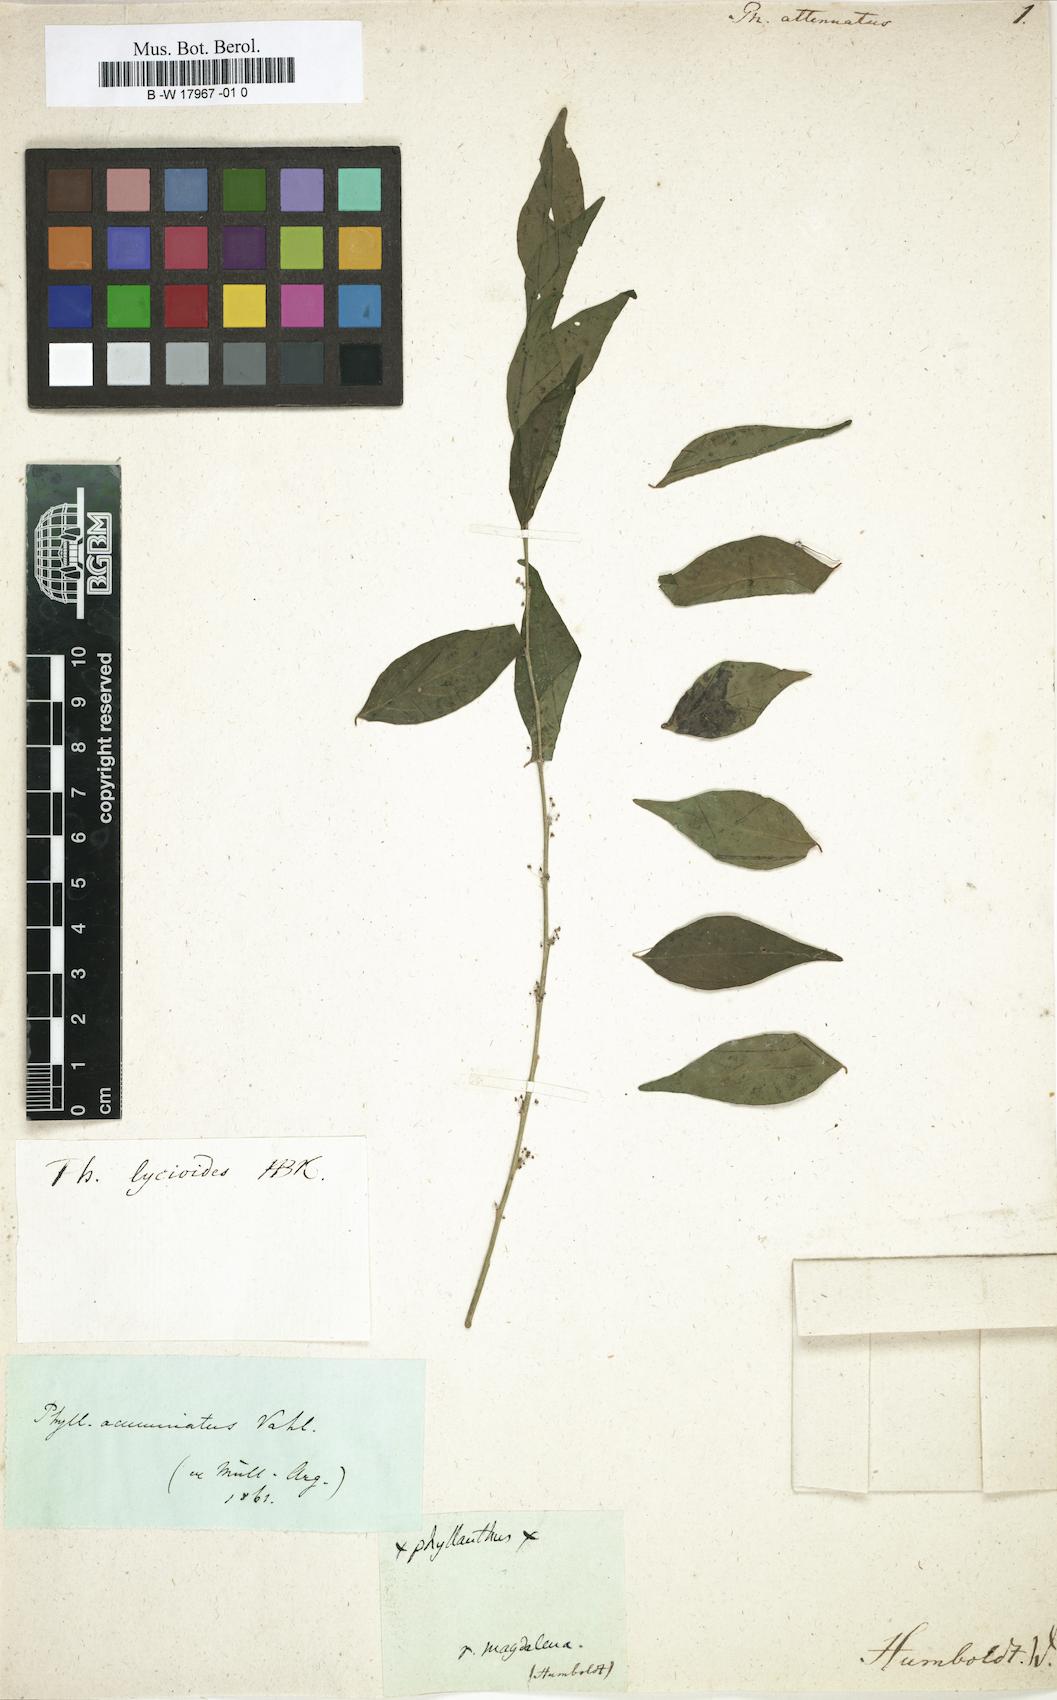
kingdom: Plantae
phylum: Tracheophyta
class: Magnoliopsida
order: Malpighiales
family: Phyllanthaceae
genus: Phyllanthus
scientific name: Phyllanthus attenuatus
